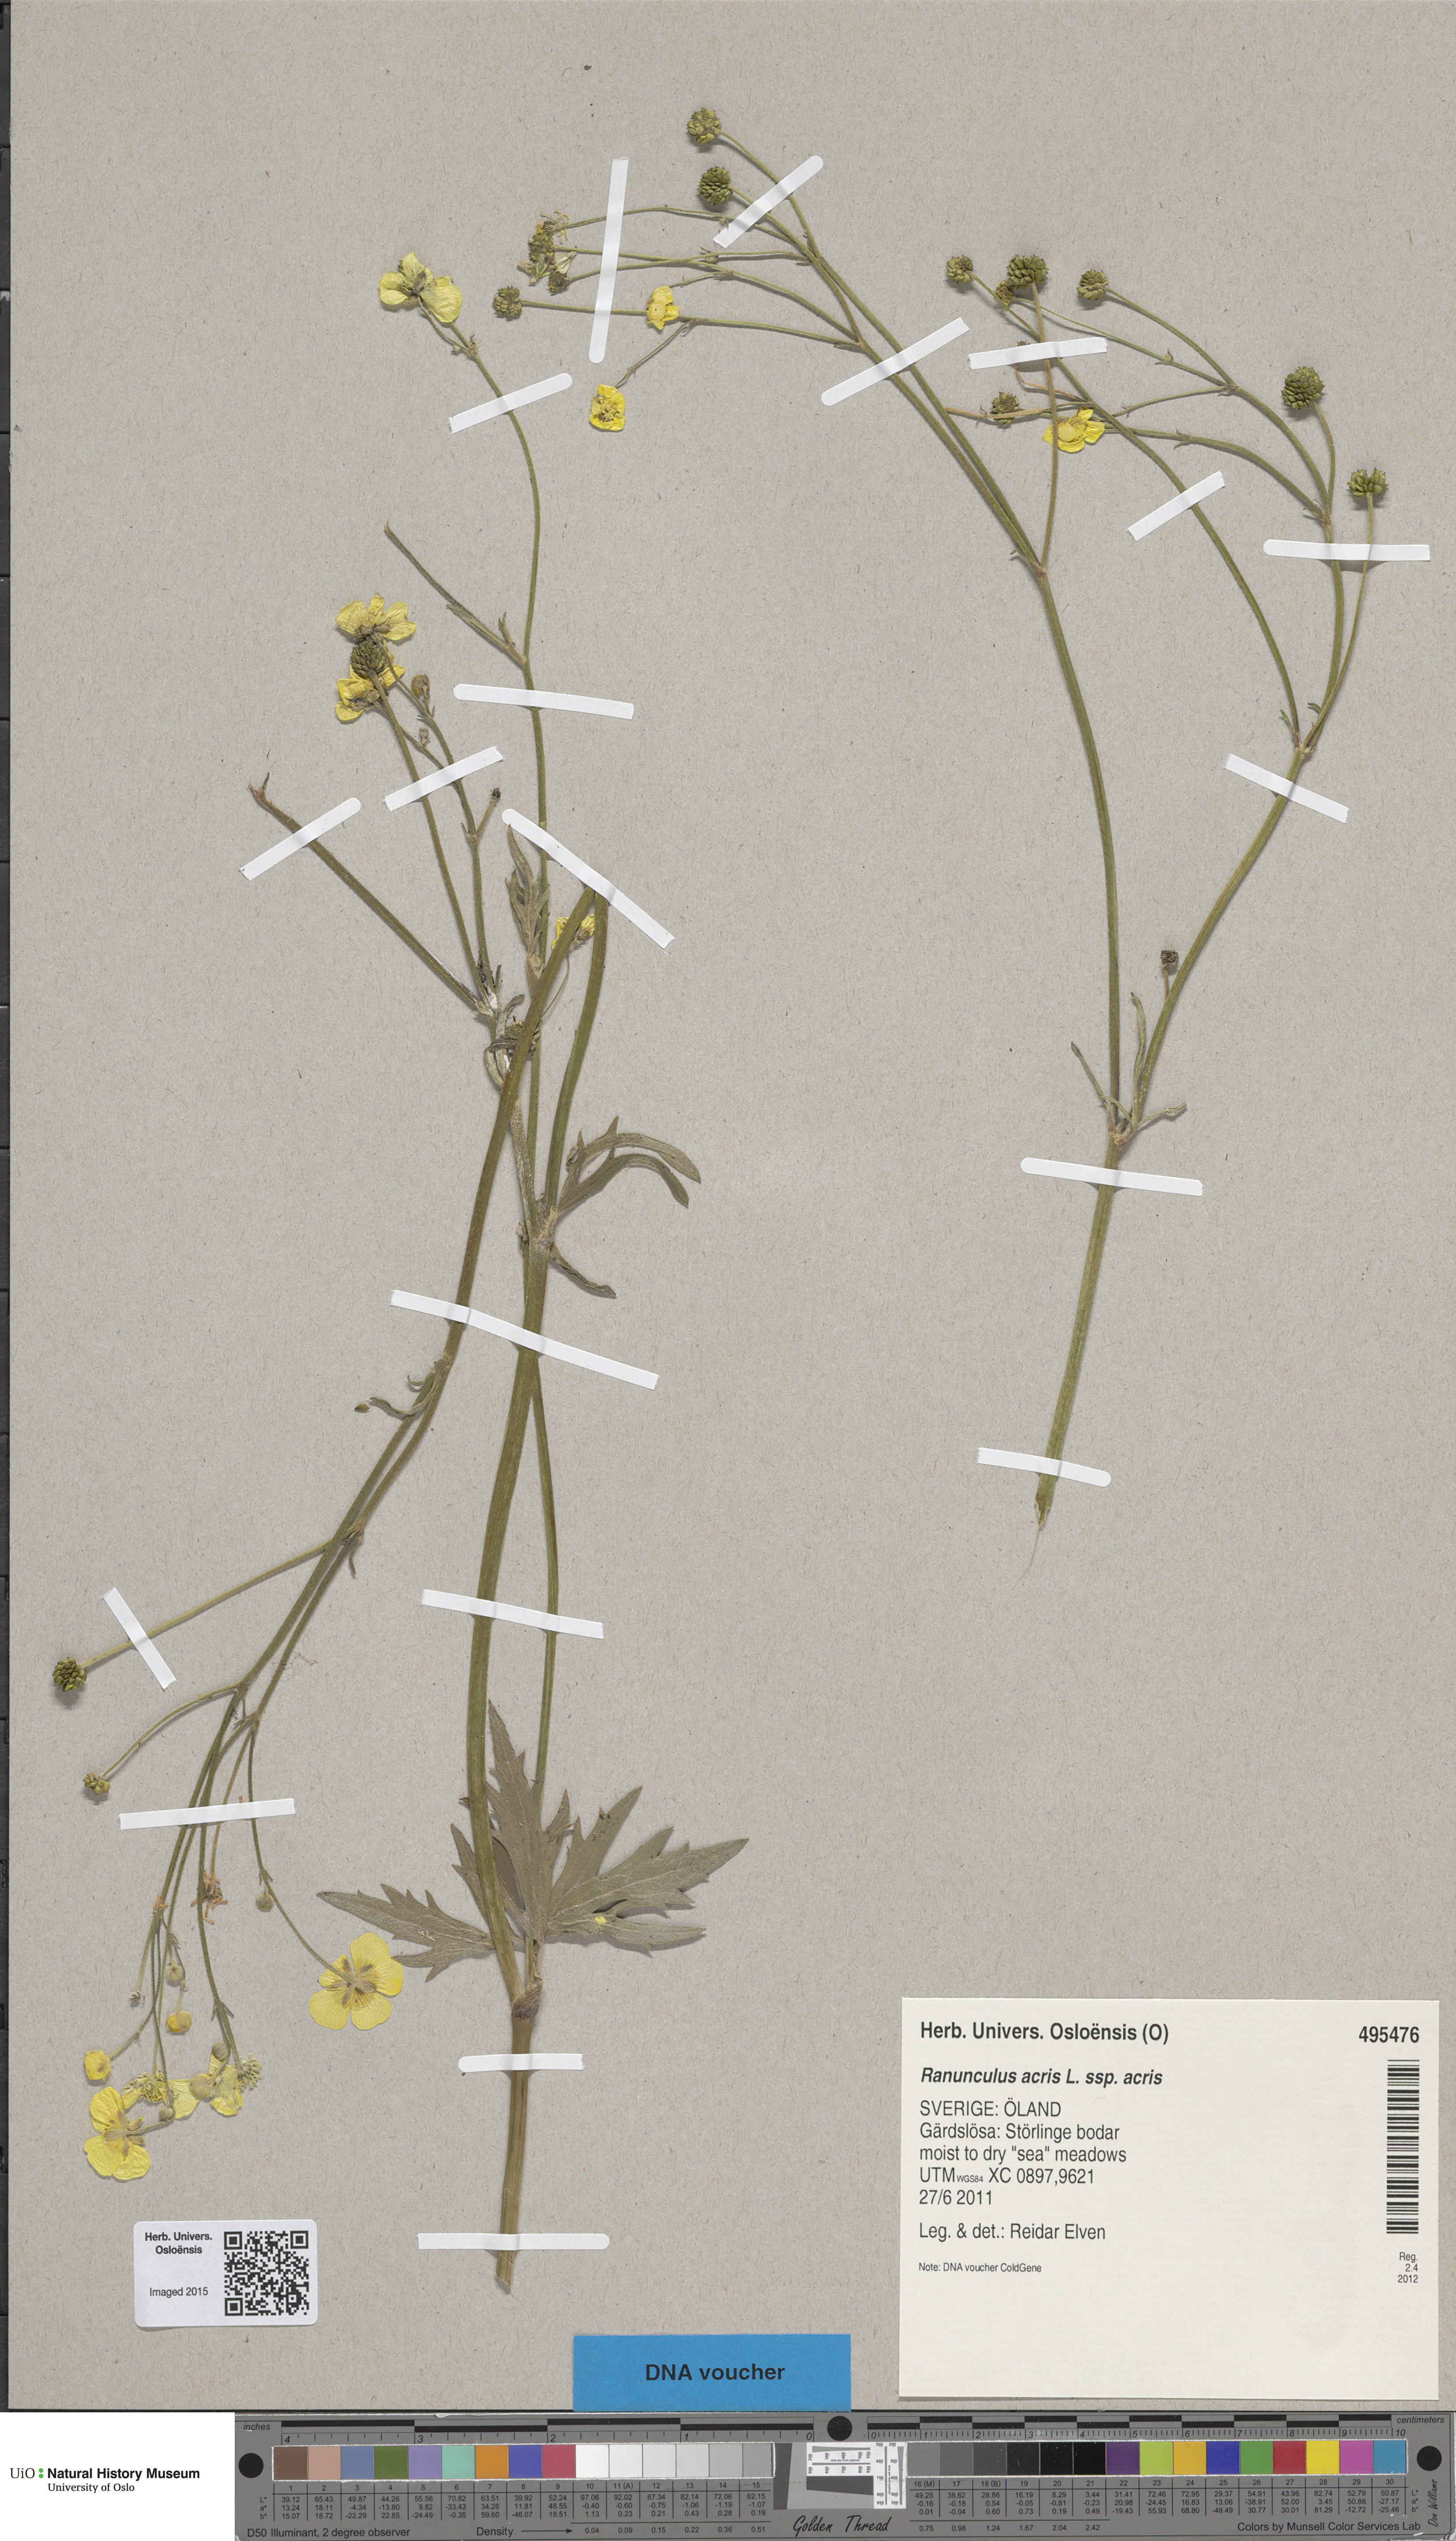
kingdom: Plantae
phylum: Tracheophyta
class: Magnoliopsida
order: Ranunculales
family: Ranunculaceae
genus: Ranunculus
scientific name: Ranunculus acris
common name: Meadow buttercup
